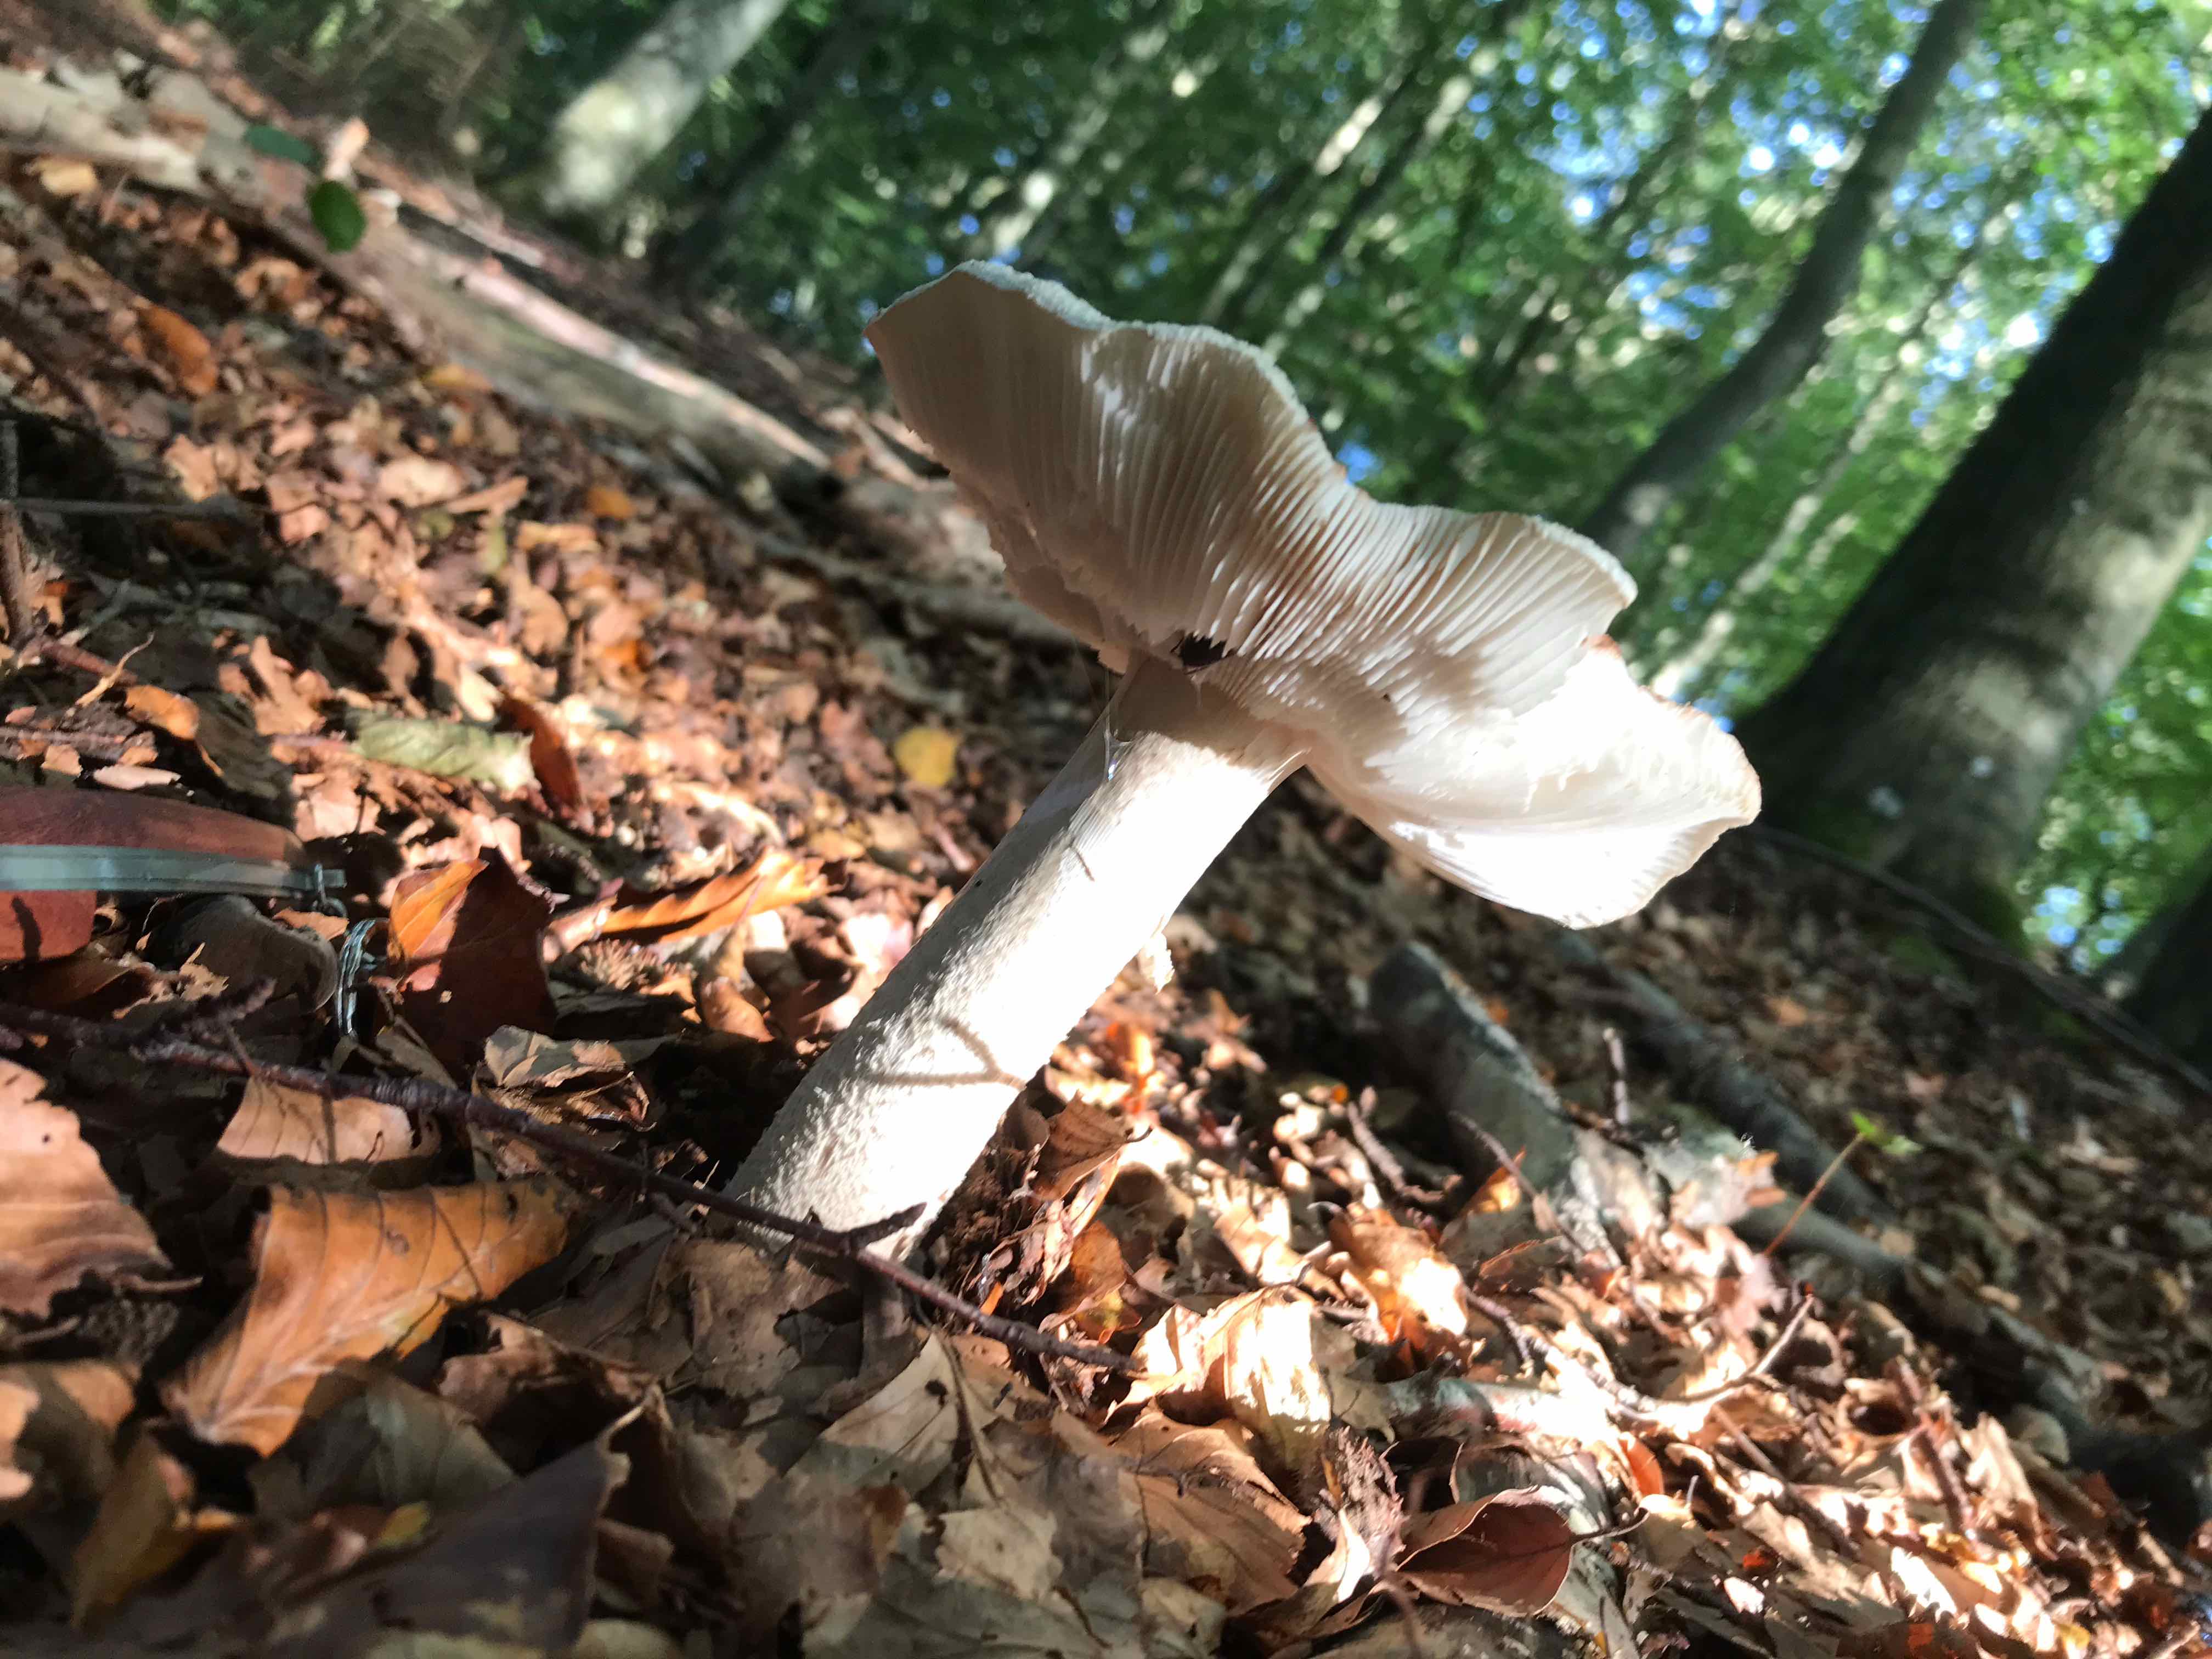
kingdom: Fungi
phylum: Basidiomycota
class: Agaricomycetes
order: Agaricales
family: Amanitaceae
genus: Amanita
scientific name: Amanita rubescens
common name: rødmende fluesvamp
